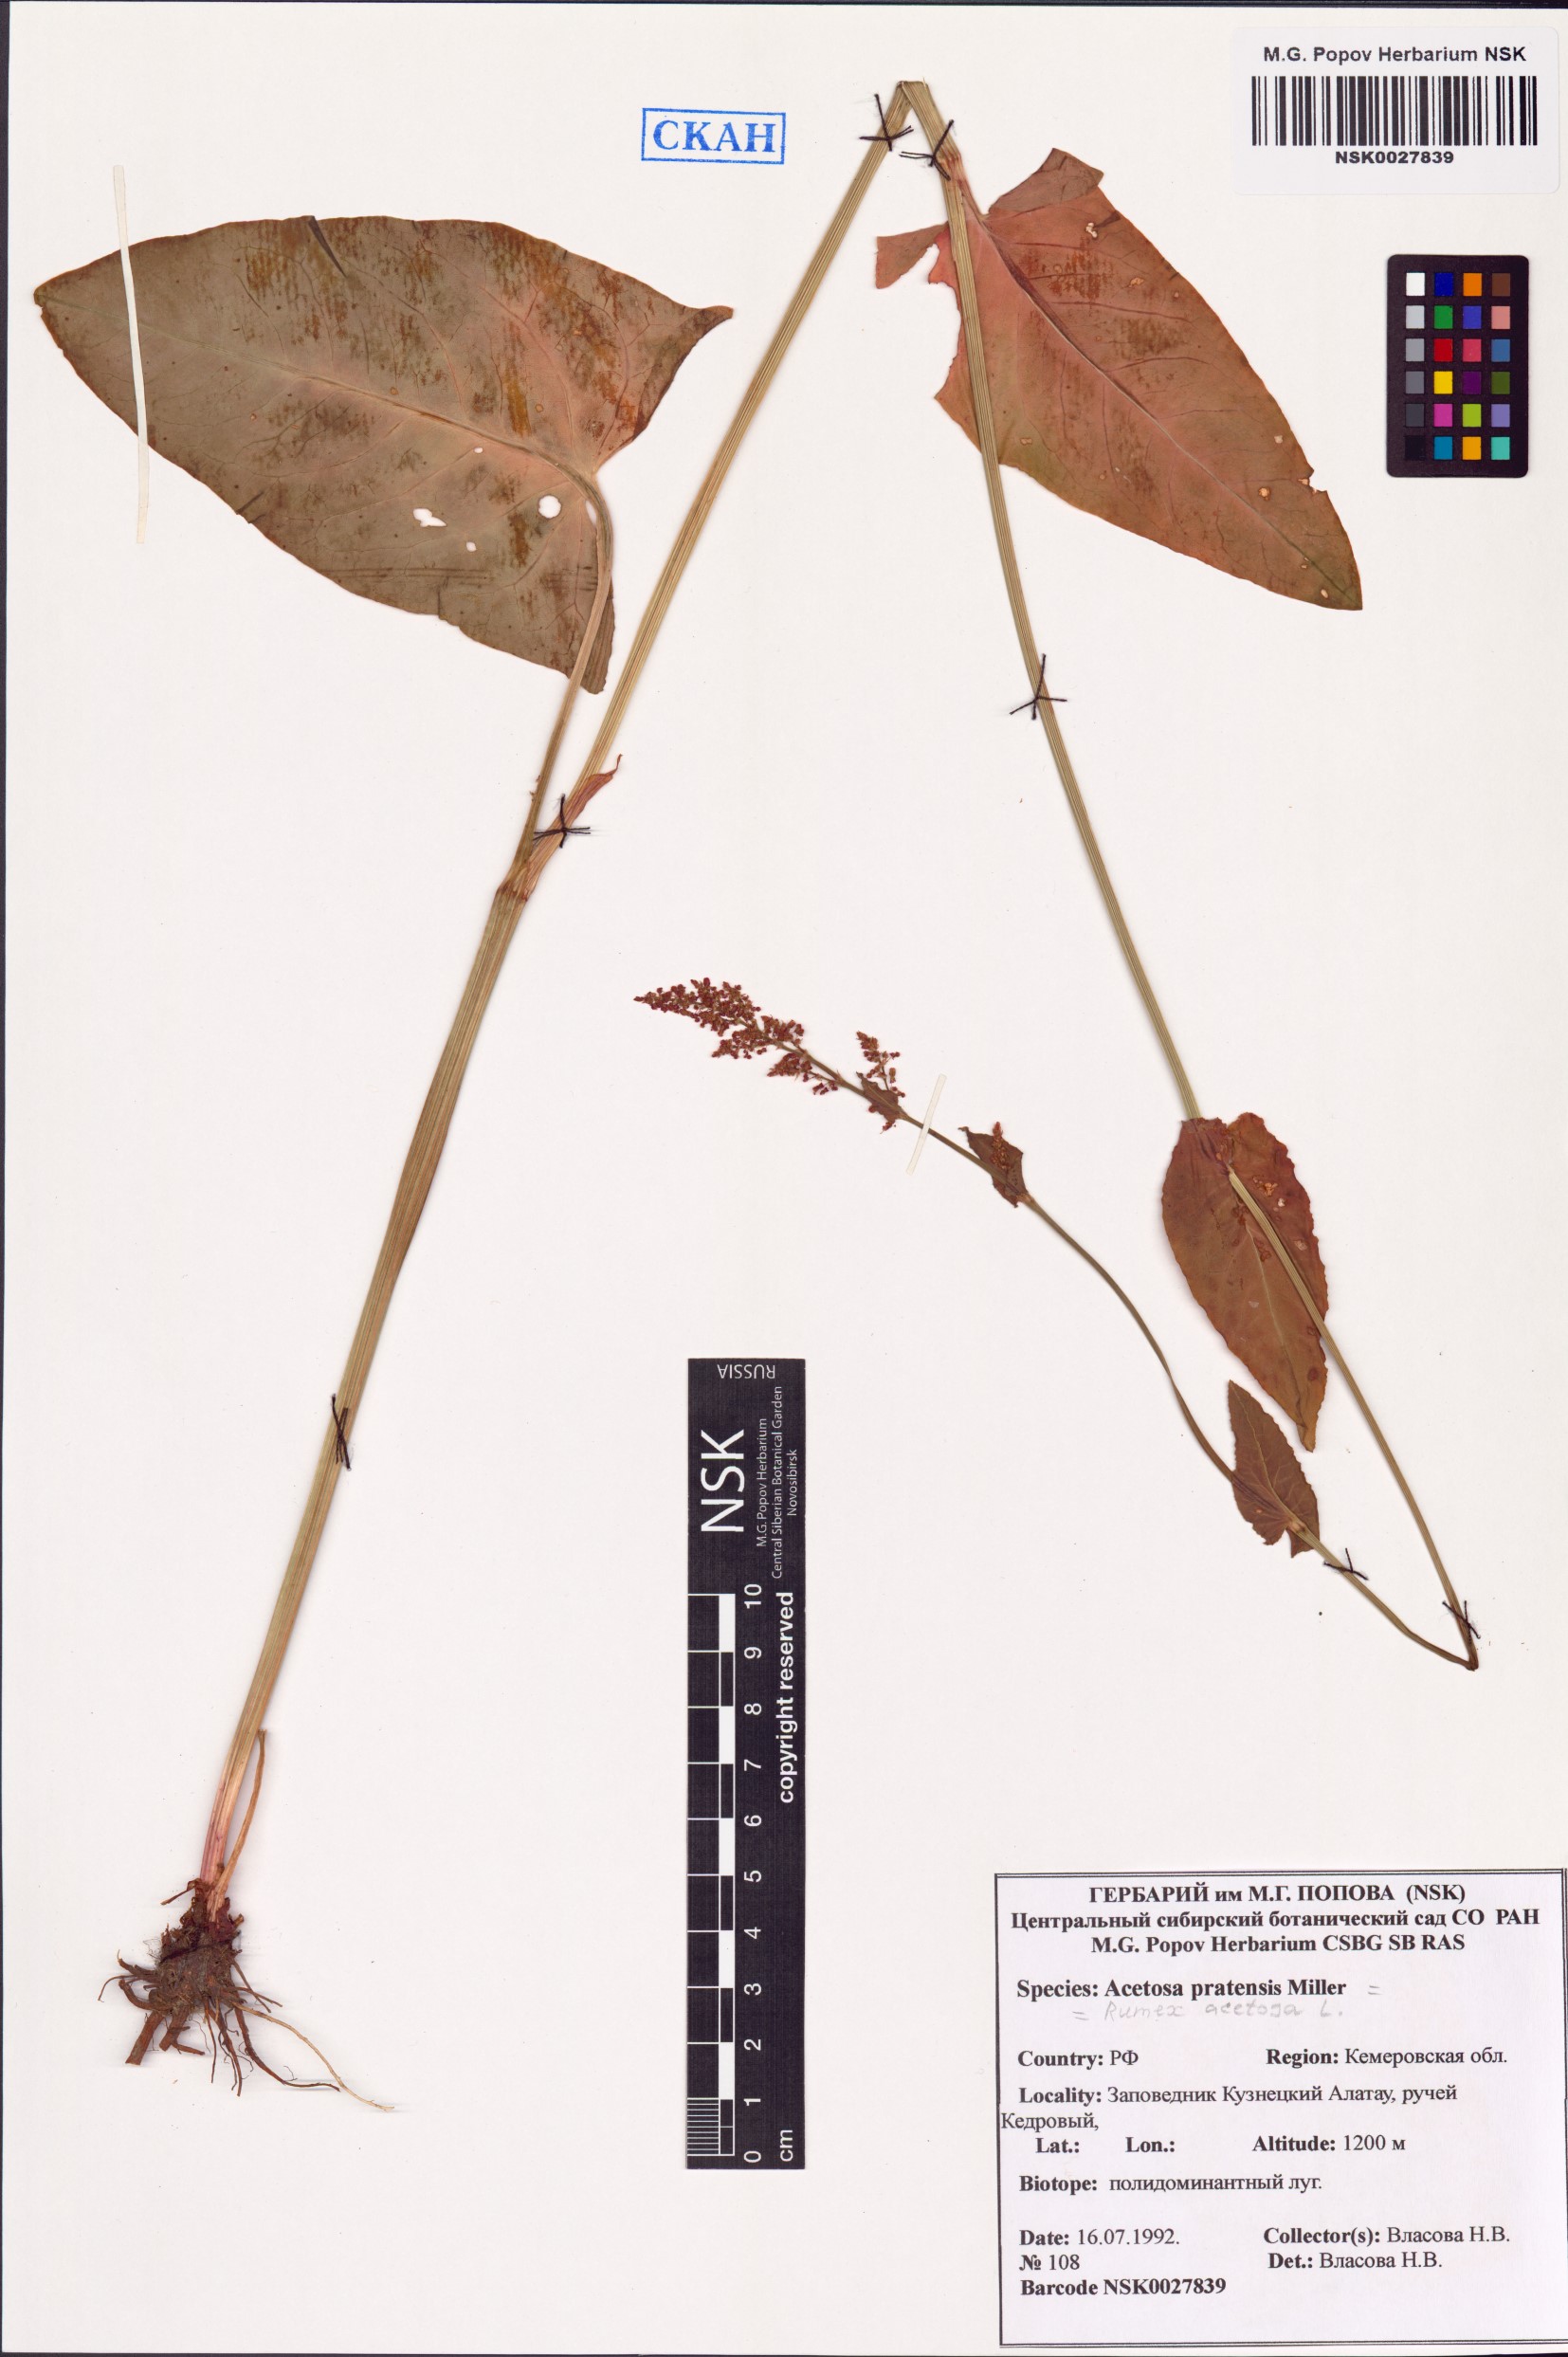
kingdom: Plantae
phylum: Tracheophyta
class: Magnoliopsida
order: Caryophyllales
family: Polygonaceae
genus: Rumex
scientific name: Rumex acetosa
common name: Garden sorrel
